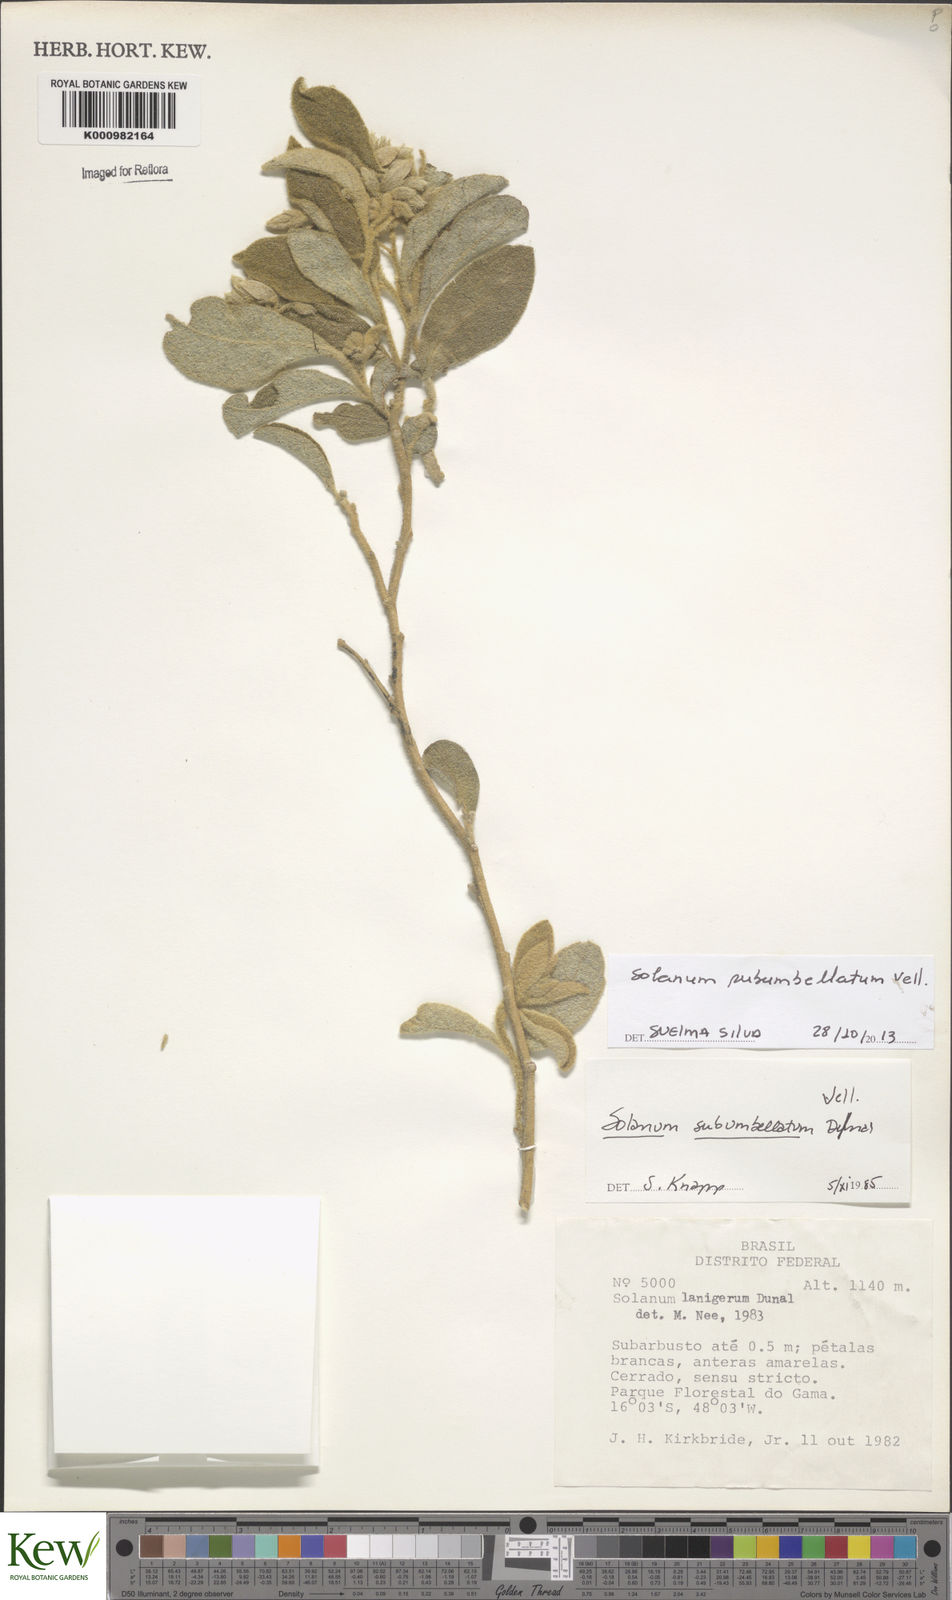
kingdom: Plantae
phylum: Tracheophyta
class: Magnoliopsida
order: Solanales
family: Solanaceae
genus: Solanum
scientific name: Solanum subumbellatum
